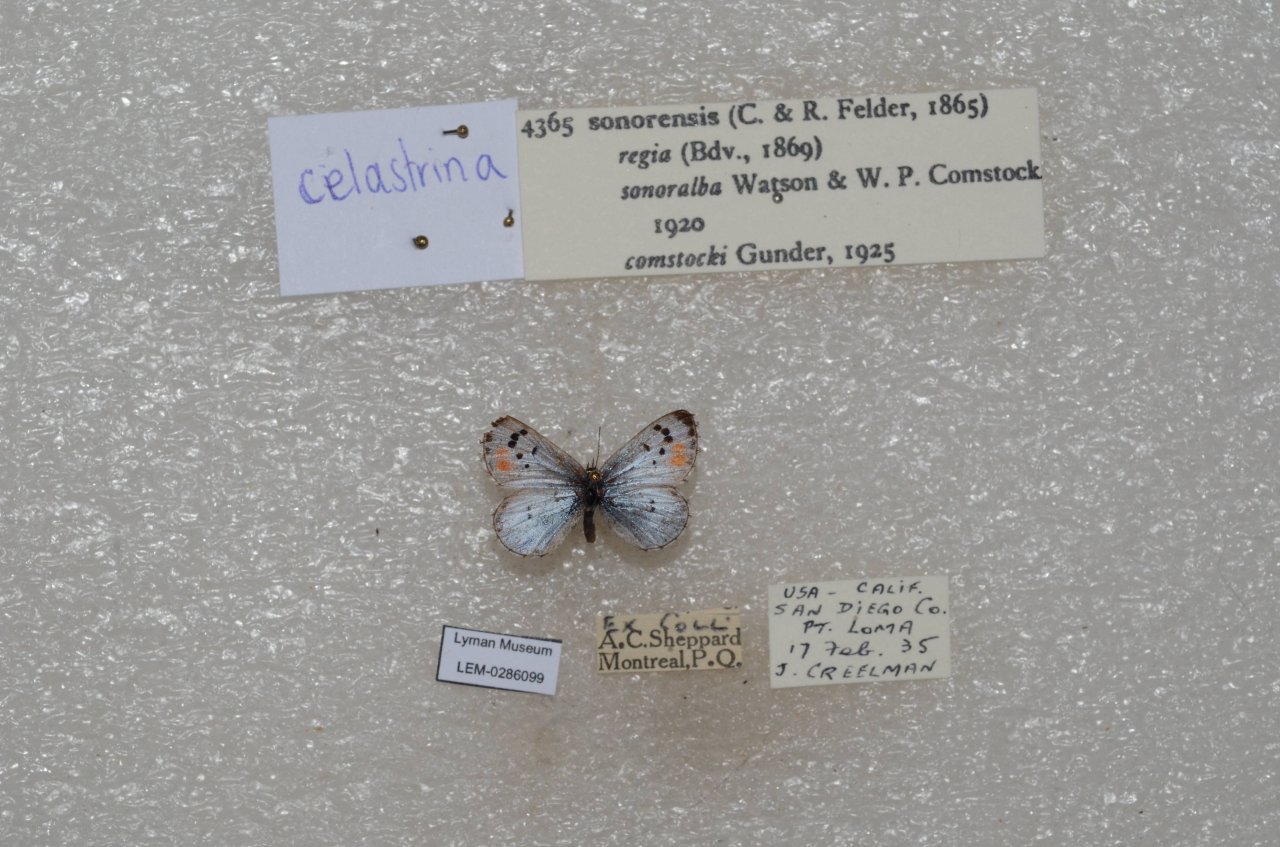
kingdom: Animalia
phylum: Arthropoda
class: Insecta
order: Lepidoptera
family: Lycaenidae
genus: Philotes
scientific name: Philotes sonorensis
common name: Sonoran Blue
